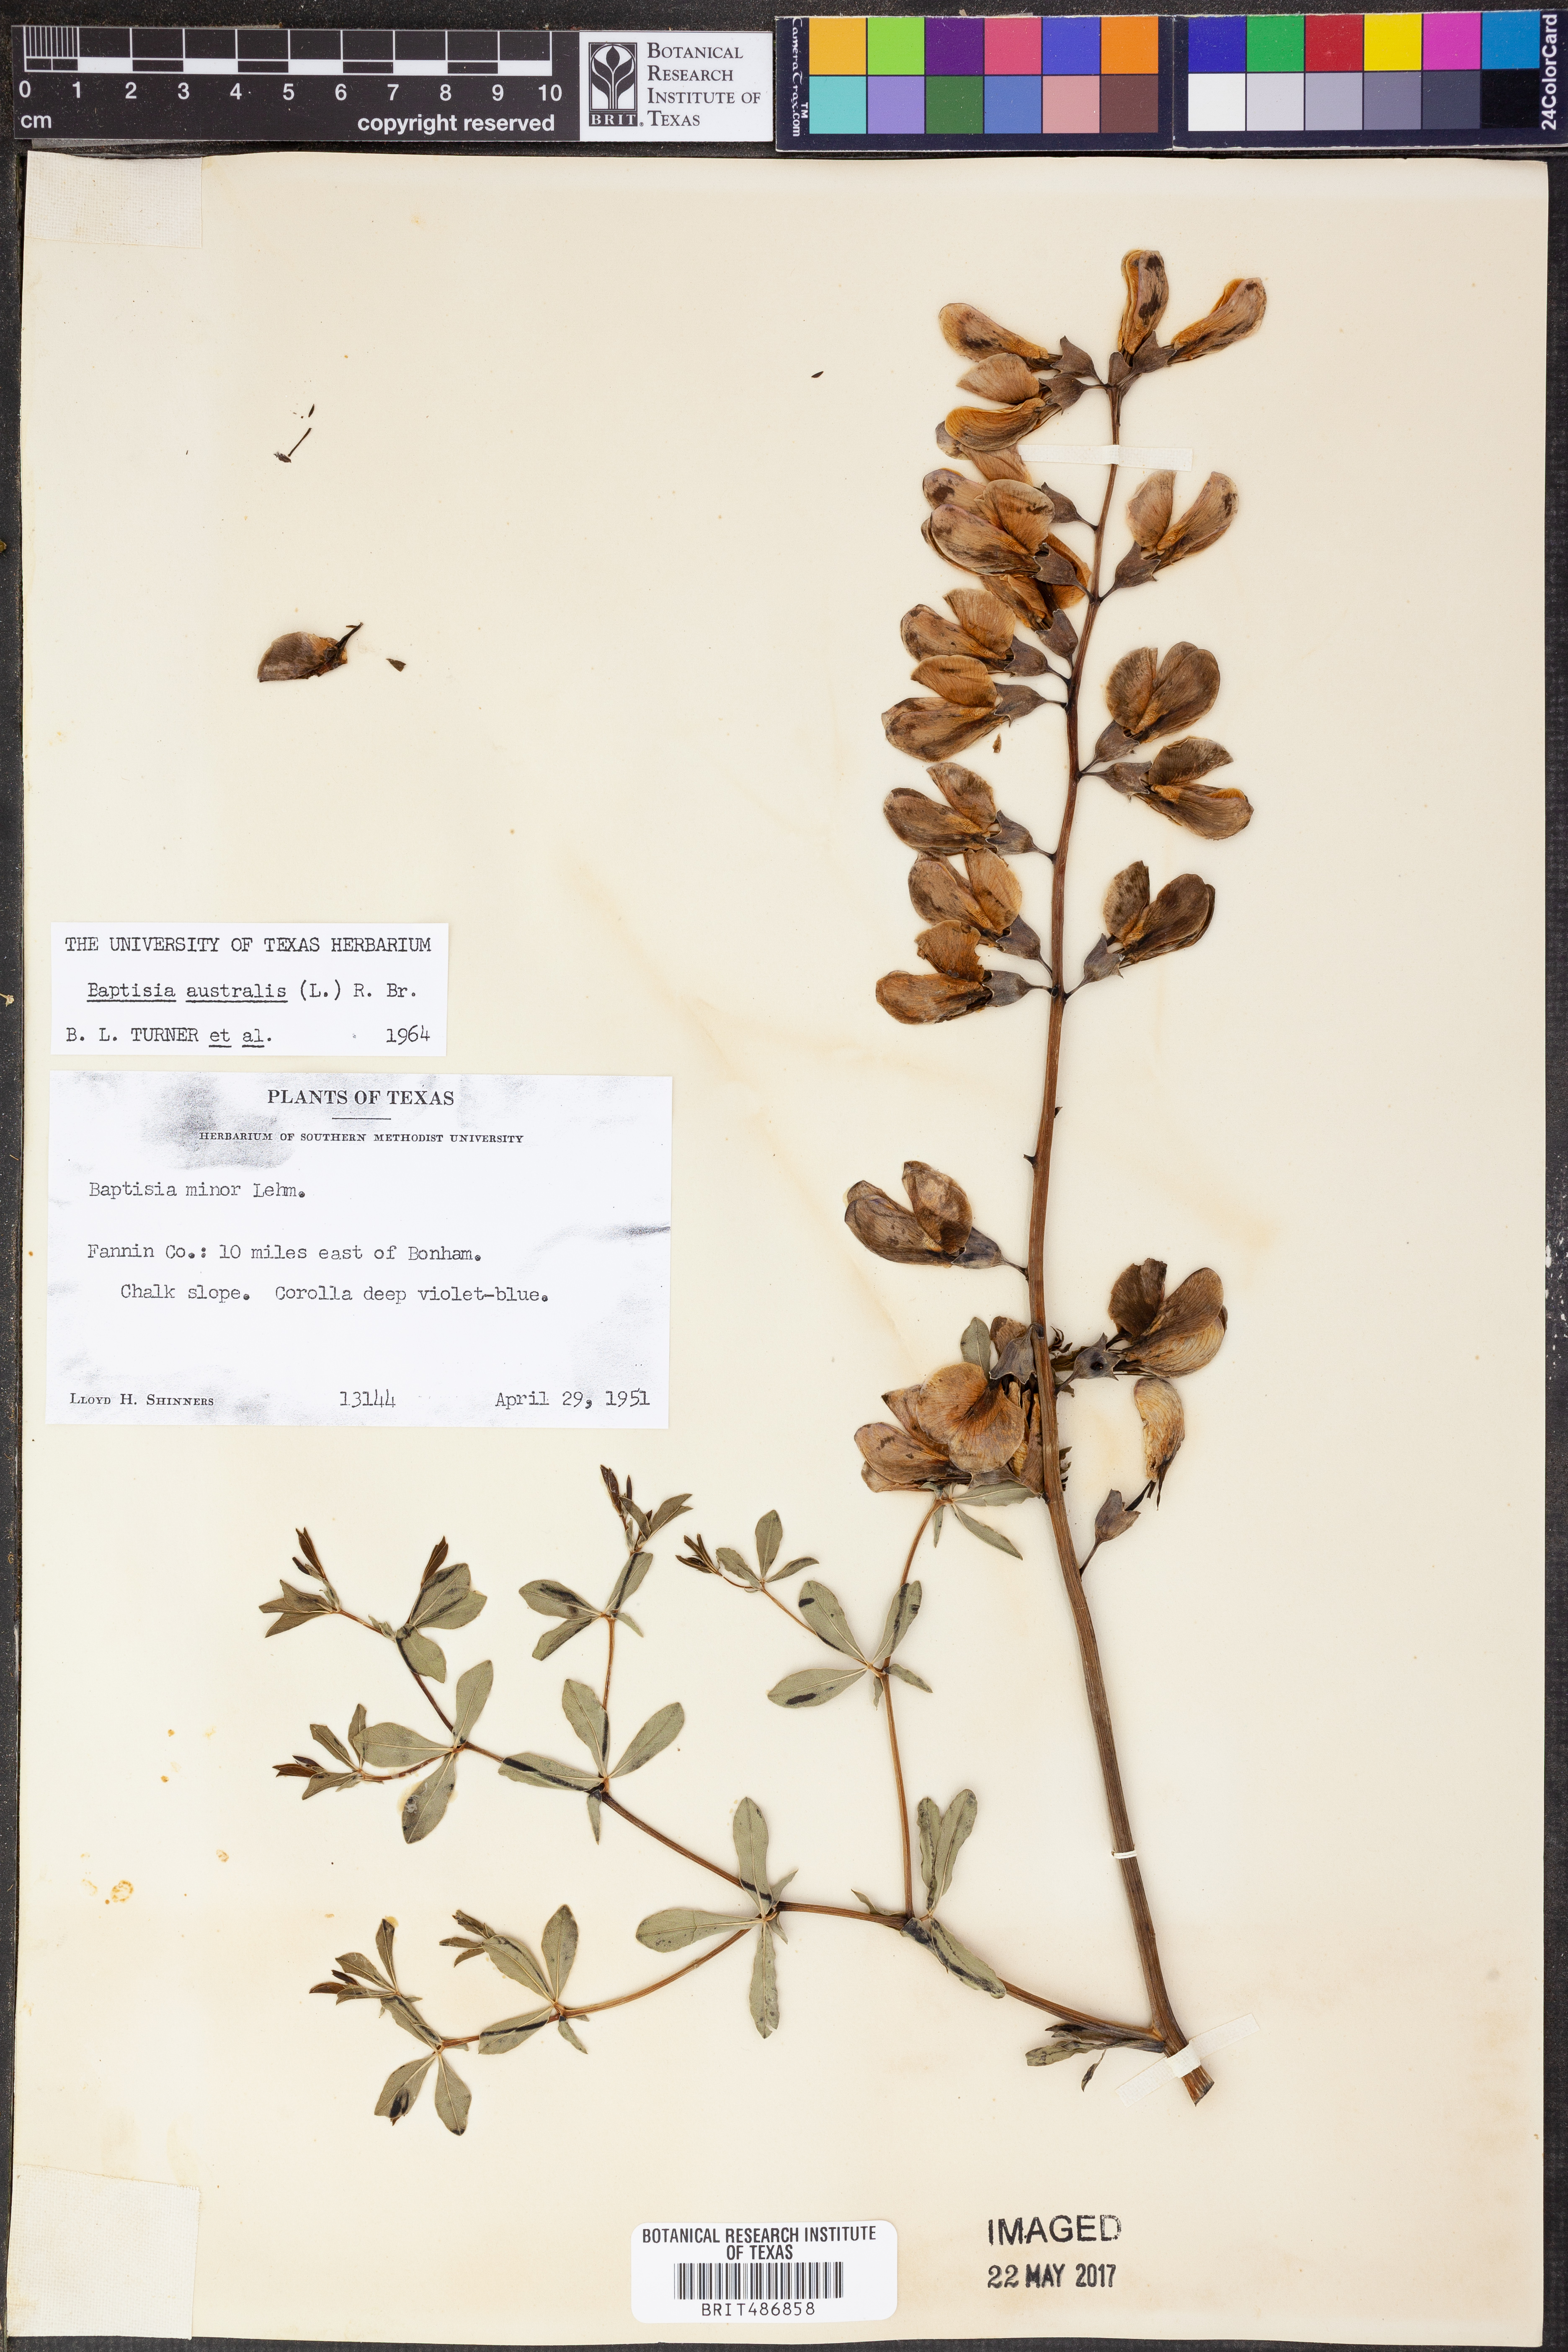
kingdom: Plantae
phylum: Tracheophyta
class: Magnoliopsida
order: Fabales
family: Fabaceae
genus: Baptisia
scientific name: Baptisia australis
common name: Blue false indigo
